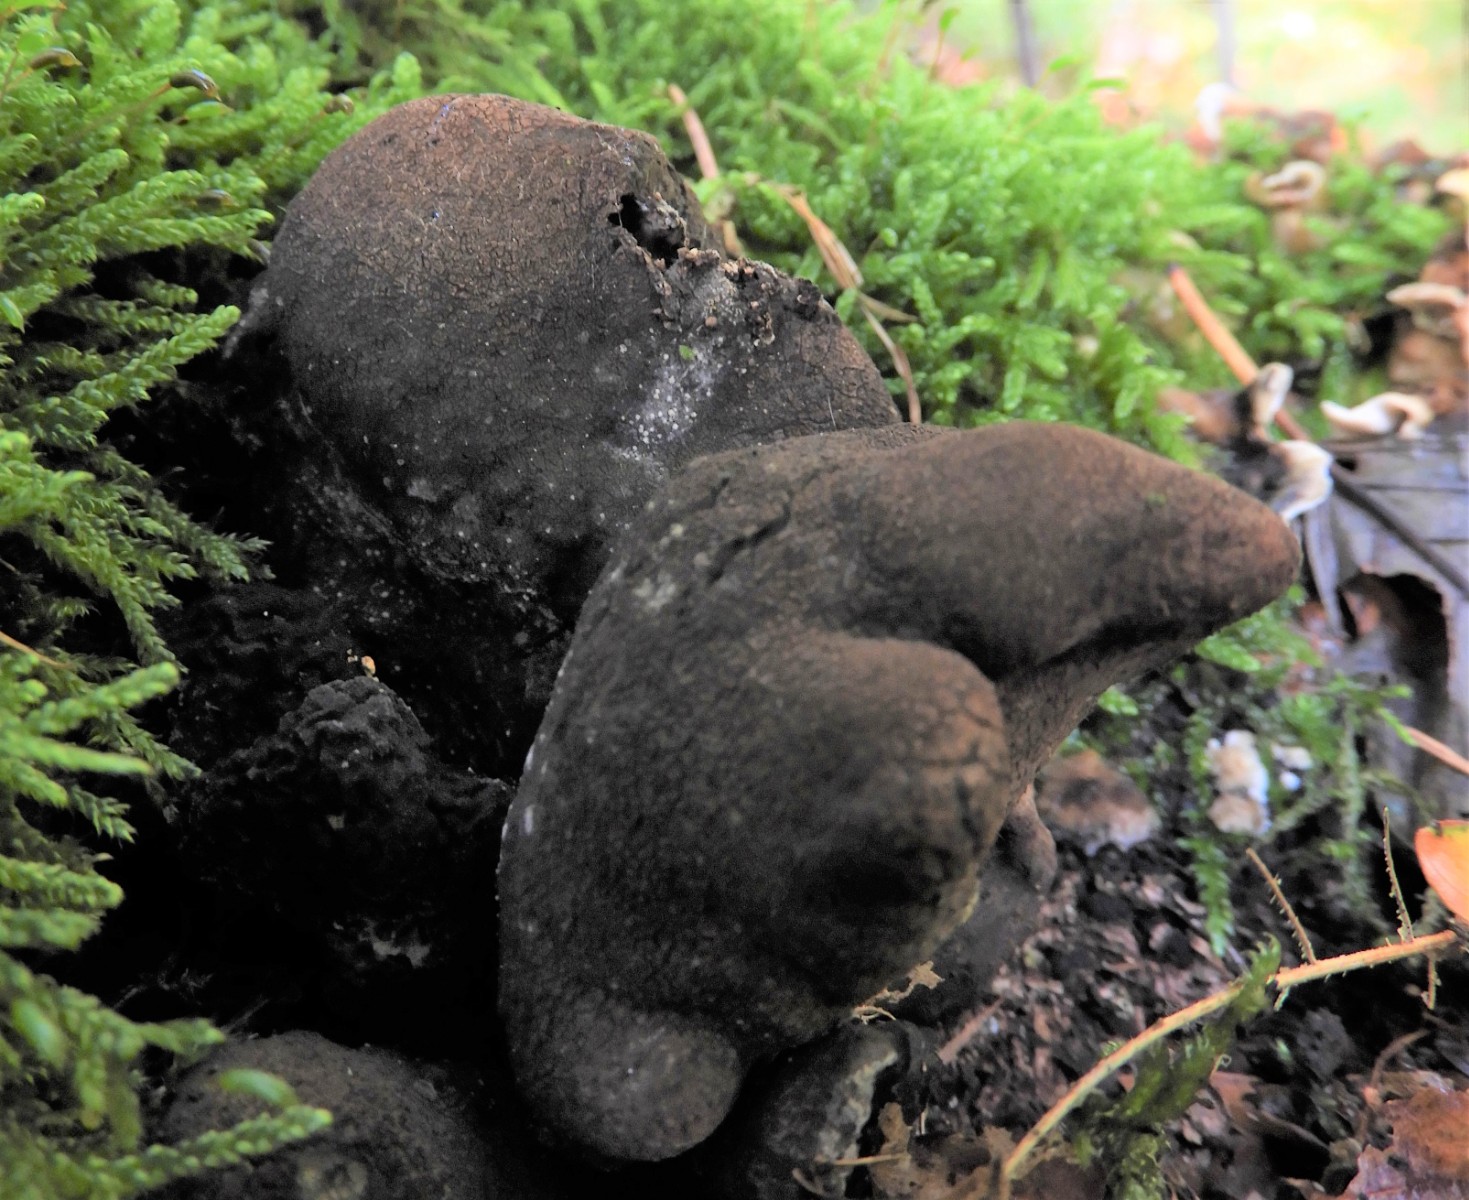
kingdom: Fungi
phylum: Ascomycota
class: Sordariomycetes
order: Xylariales
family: Xylariaceae
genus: Xylaria
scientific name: Xylaria polymorpha
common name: kølle-stødsvamp
